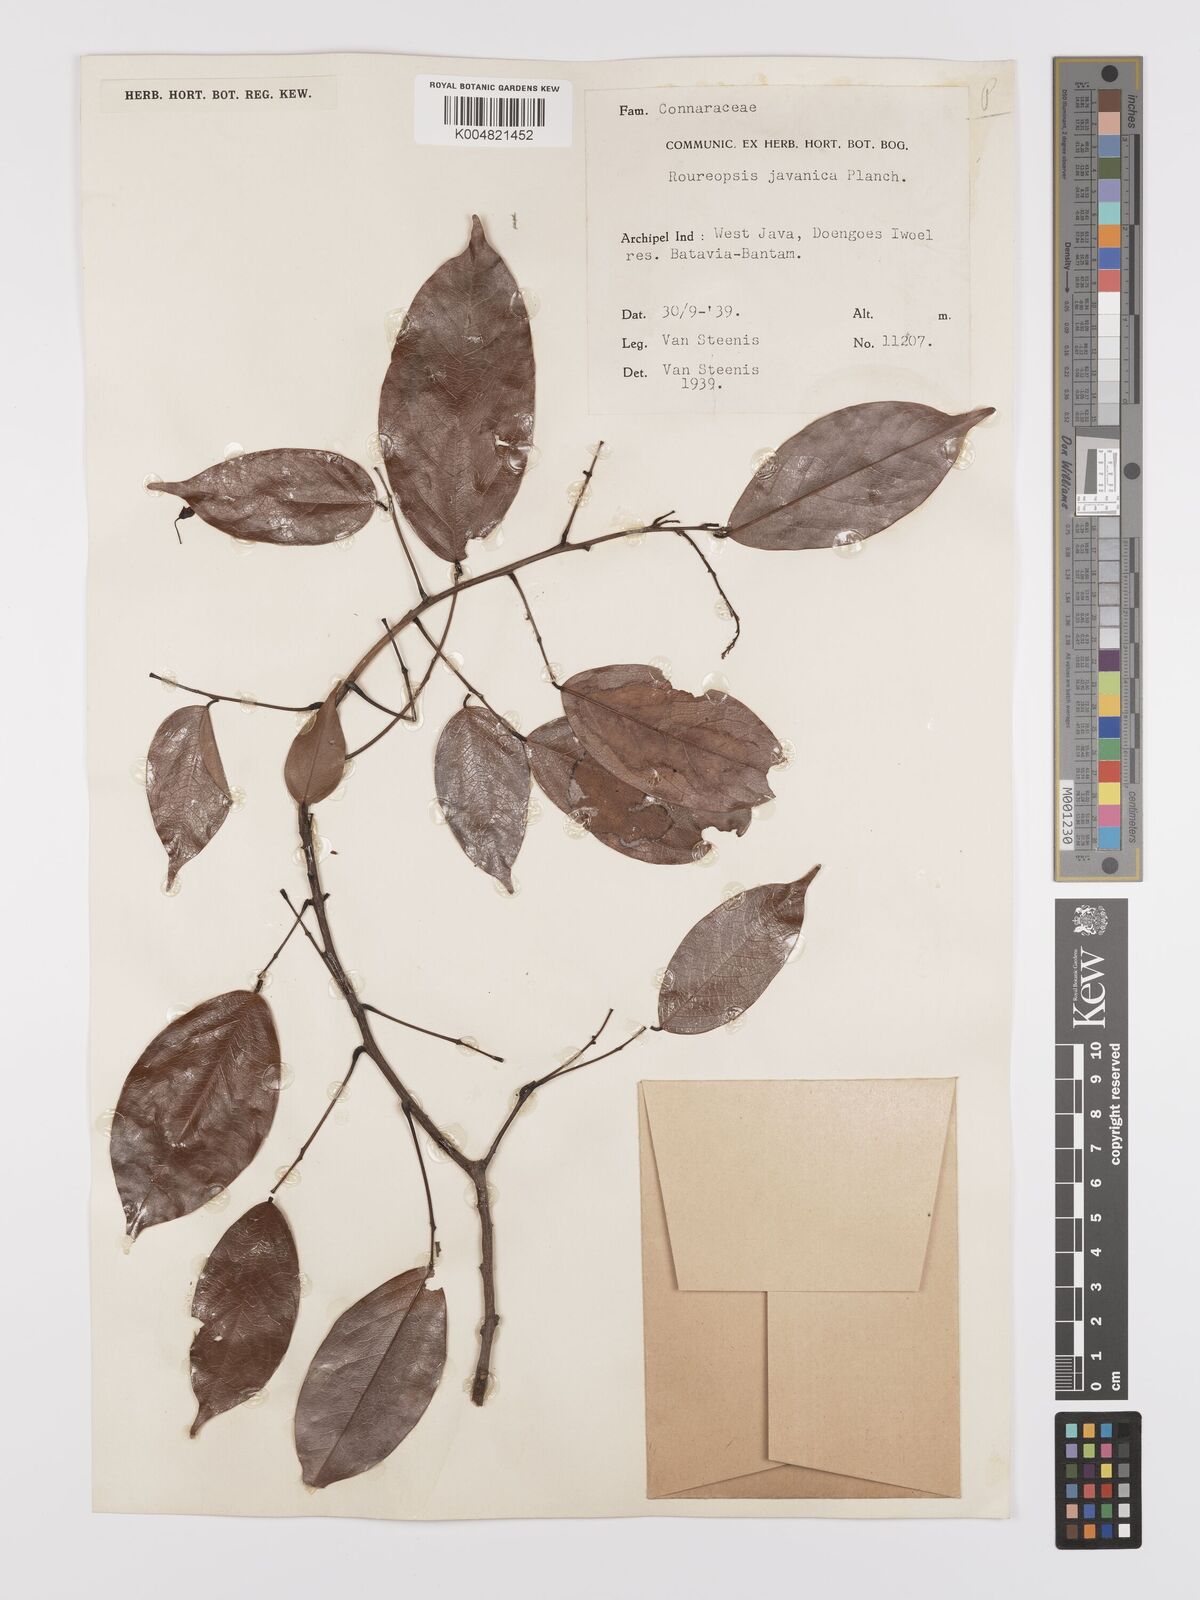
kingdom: Plantae
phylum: Tracheophyta
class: Magnoliopsida
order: Oxalidales
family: Connaraceae
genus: Rourea
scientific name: Rourea emarginata
